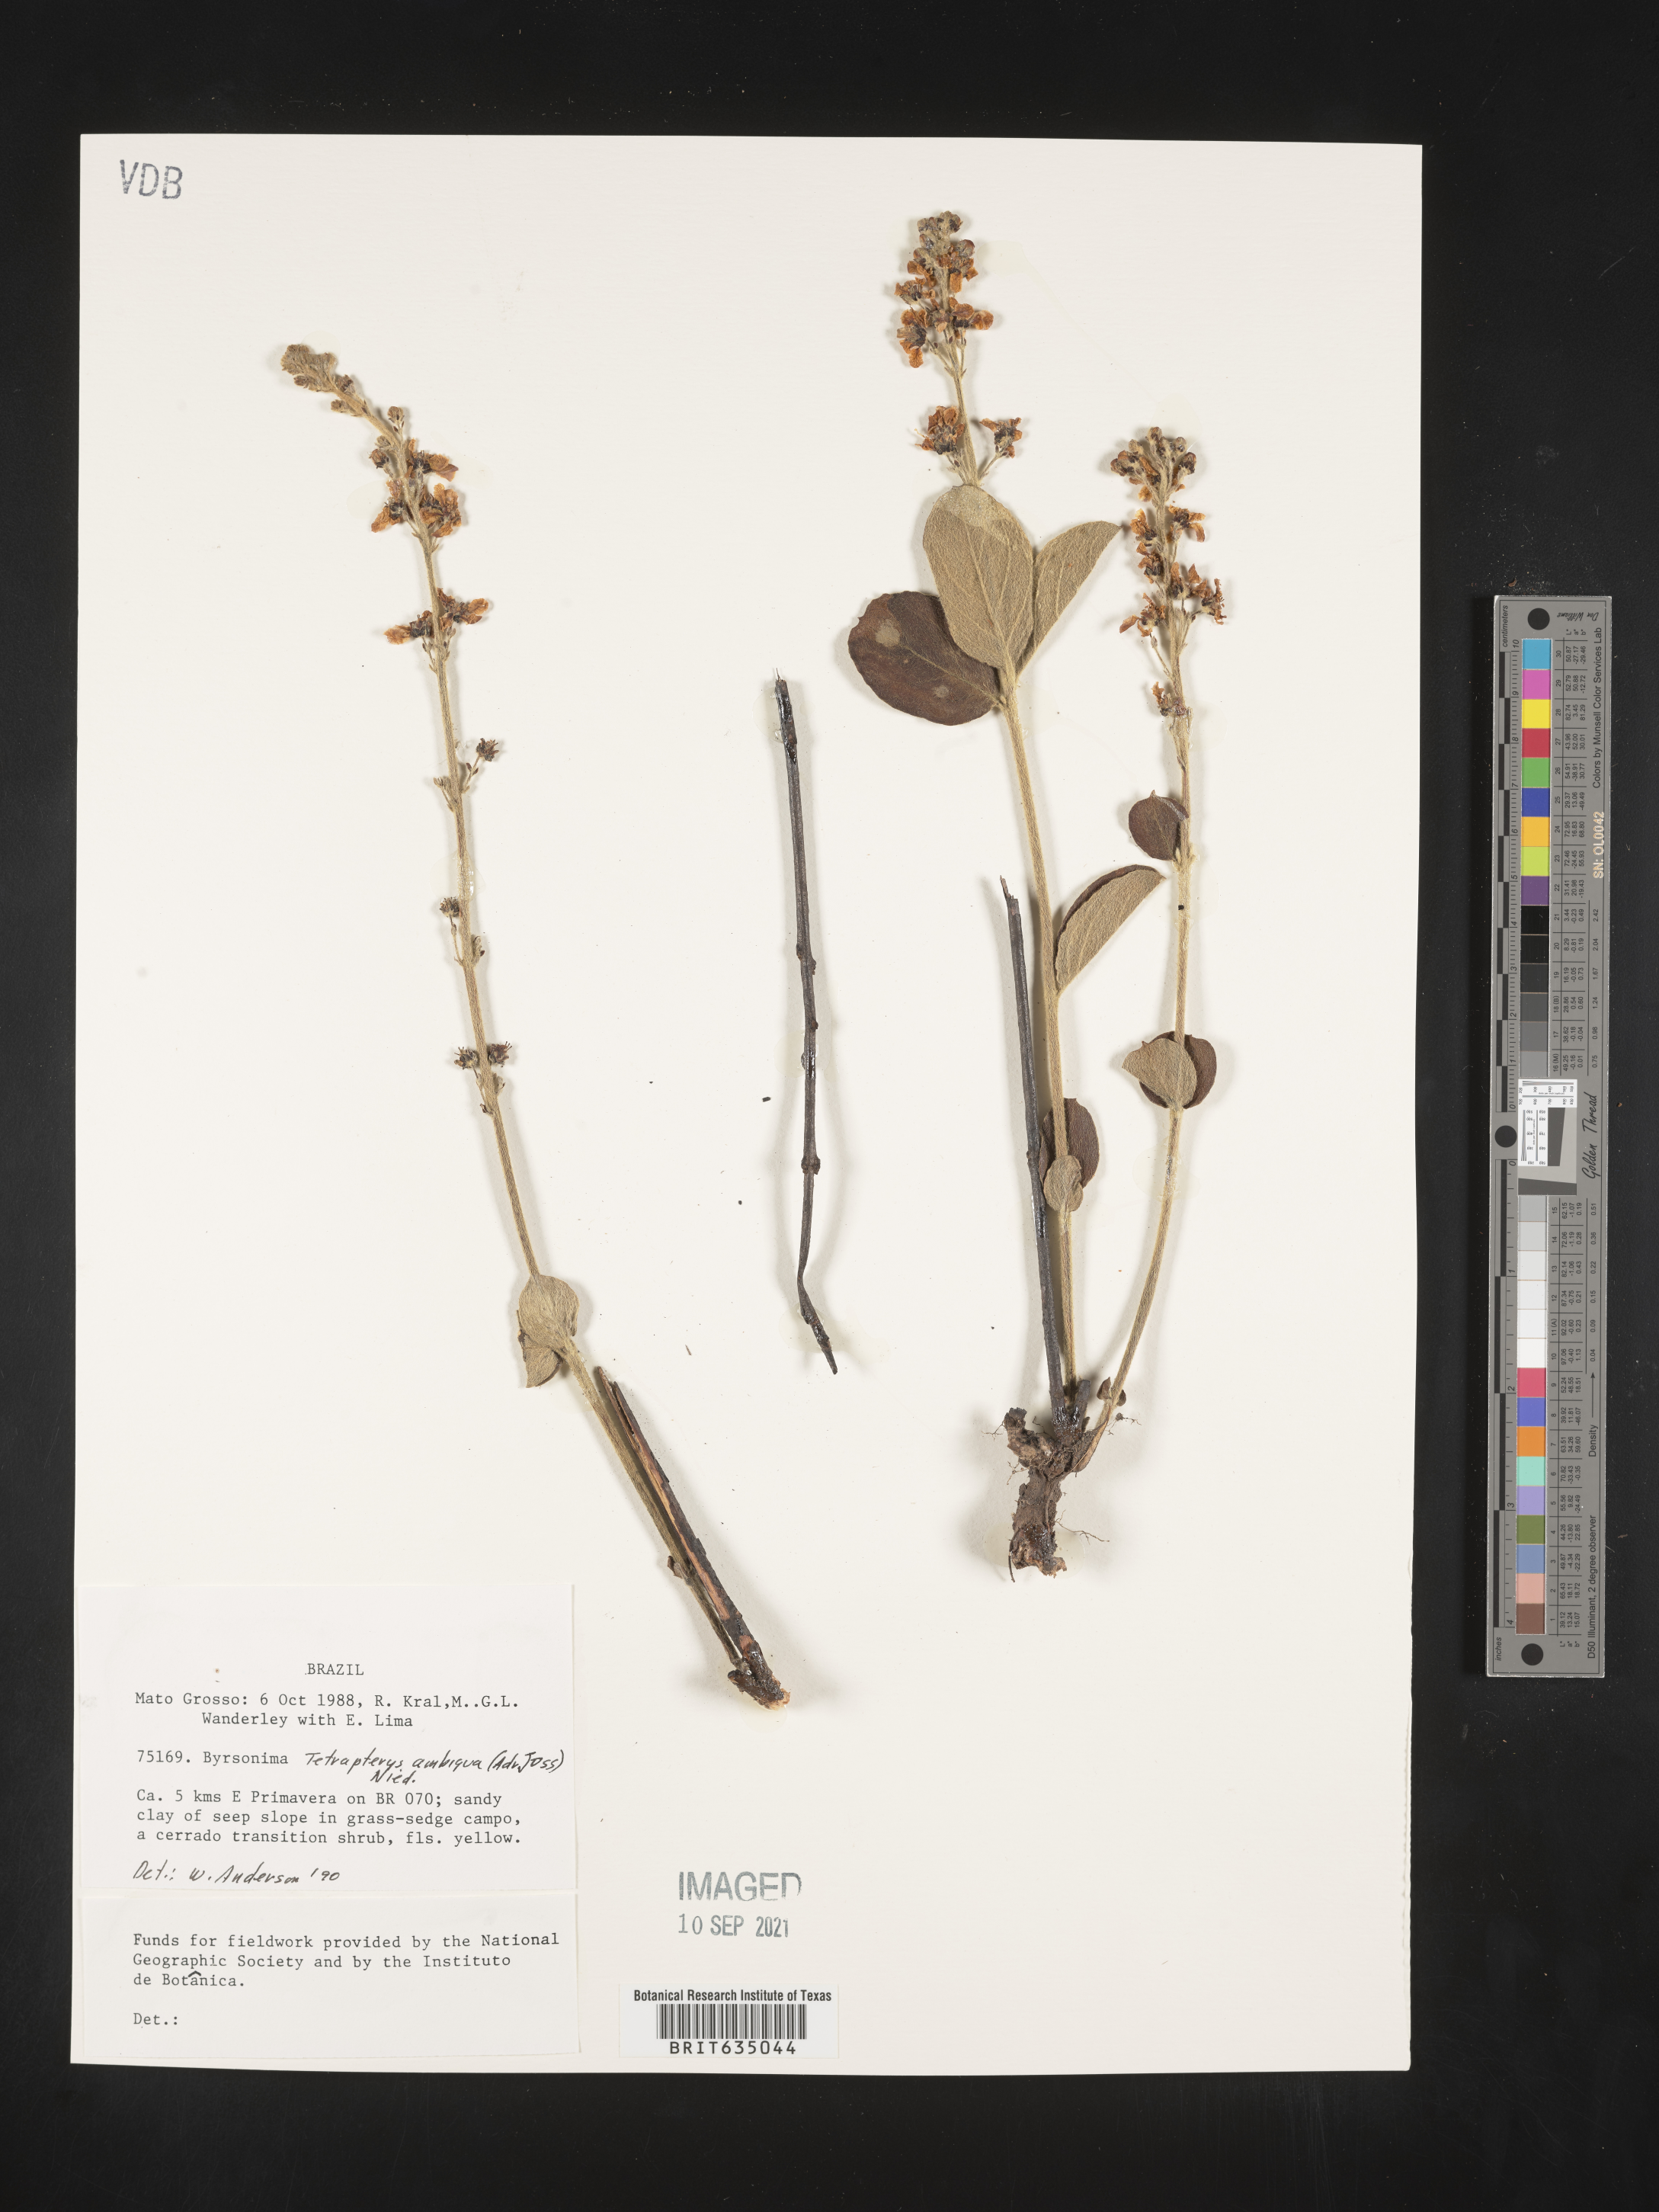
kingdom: Plantae
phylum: Tracheophyta
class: Magnoliopsida
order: Ericales
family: Styracaceae
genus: Tetrapteris
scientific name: Tetrapteris
